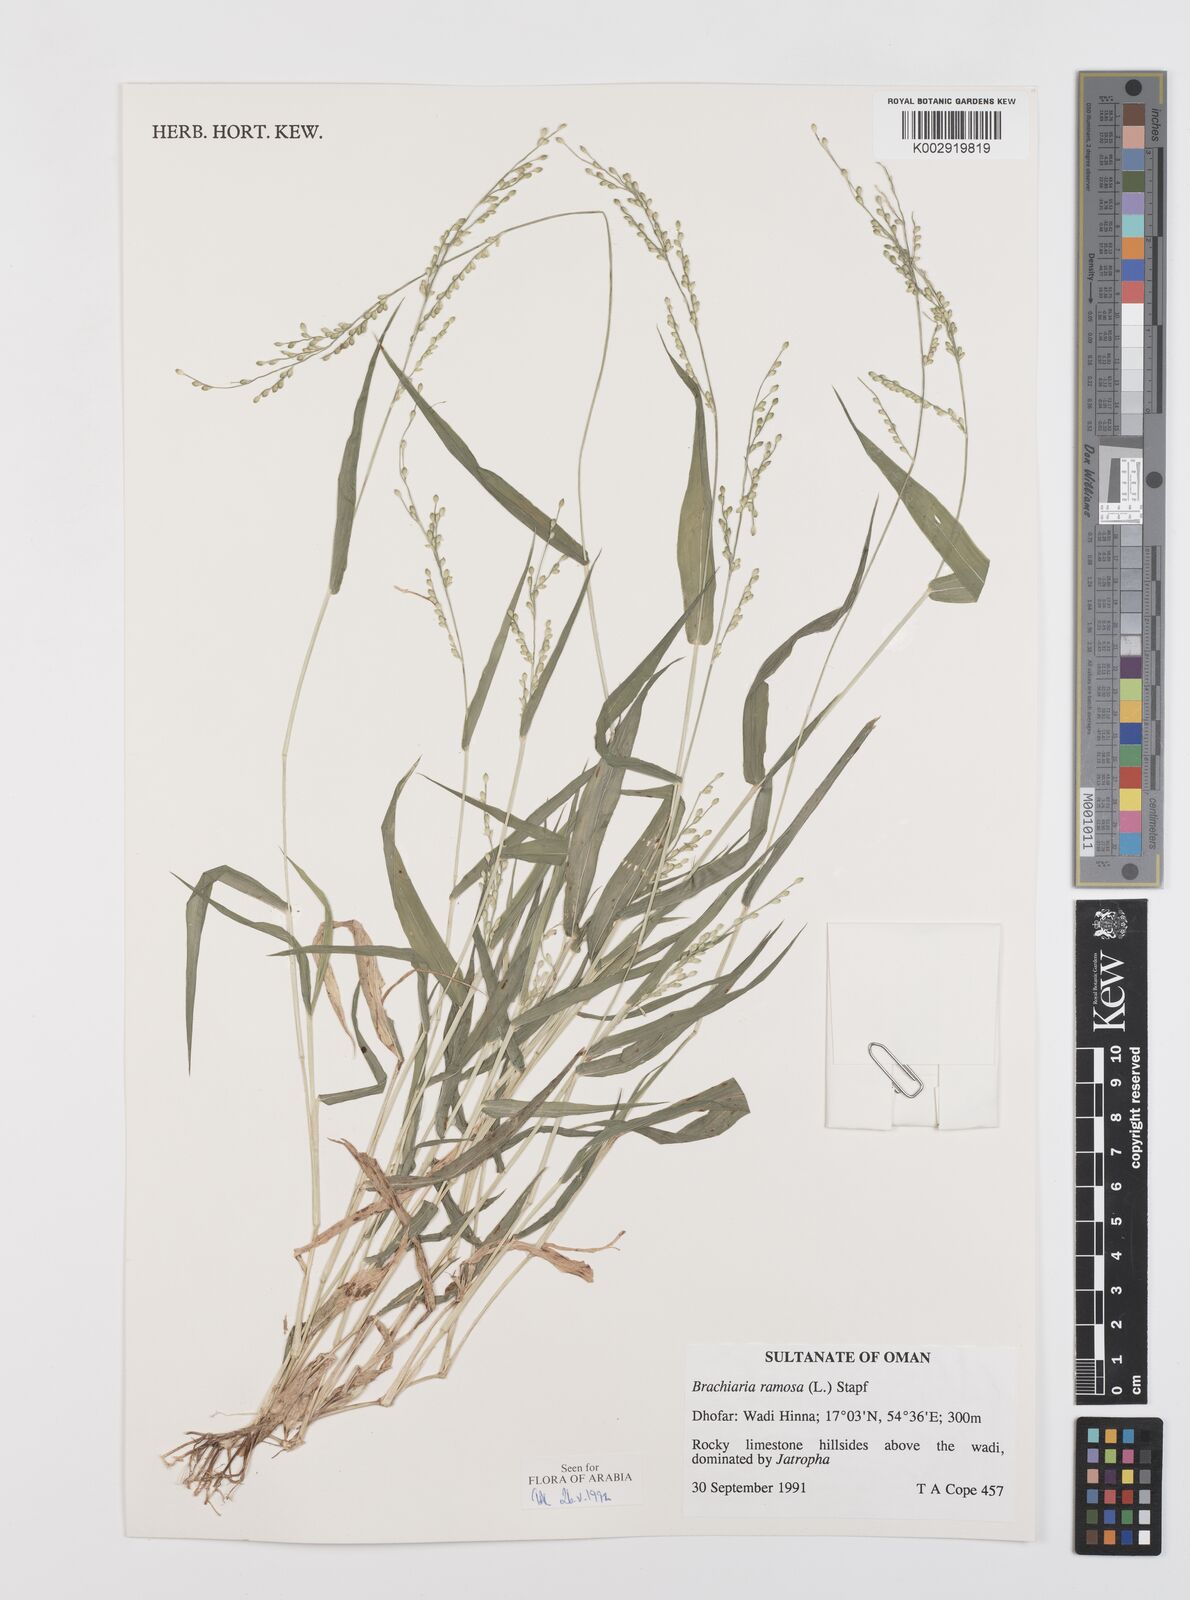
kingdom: Plantae
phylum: Tracheophyta
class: Liliopsida
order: Poales
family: Poaceae
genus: Urochloa
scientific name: Urochloa ramosa
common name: Browntop millet
